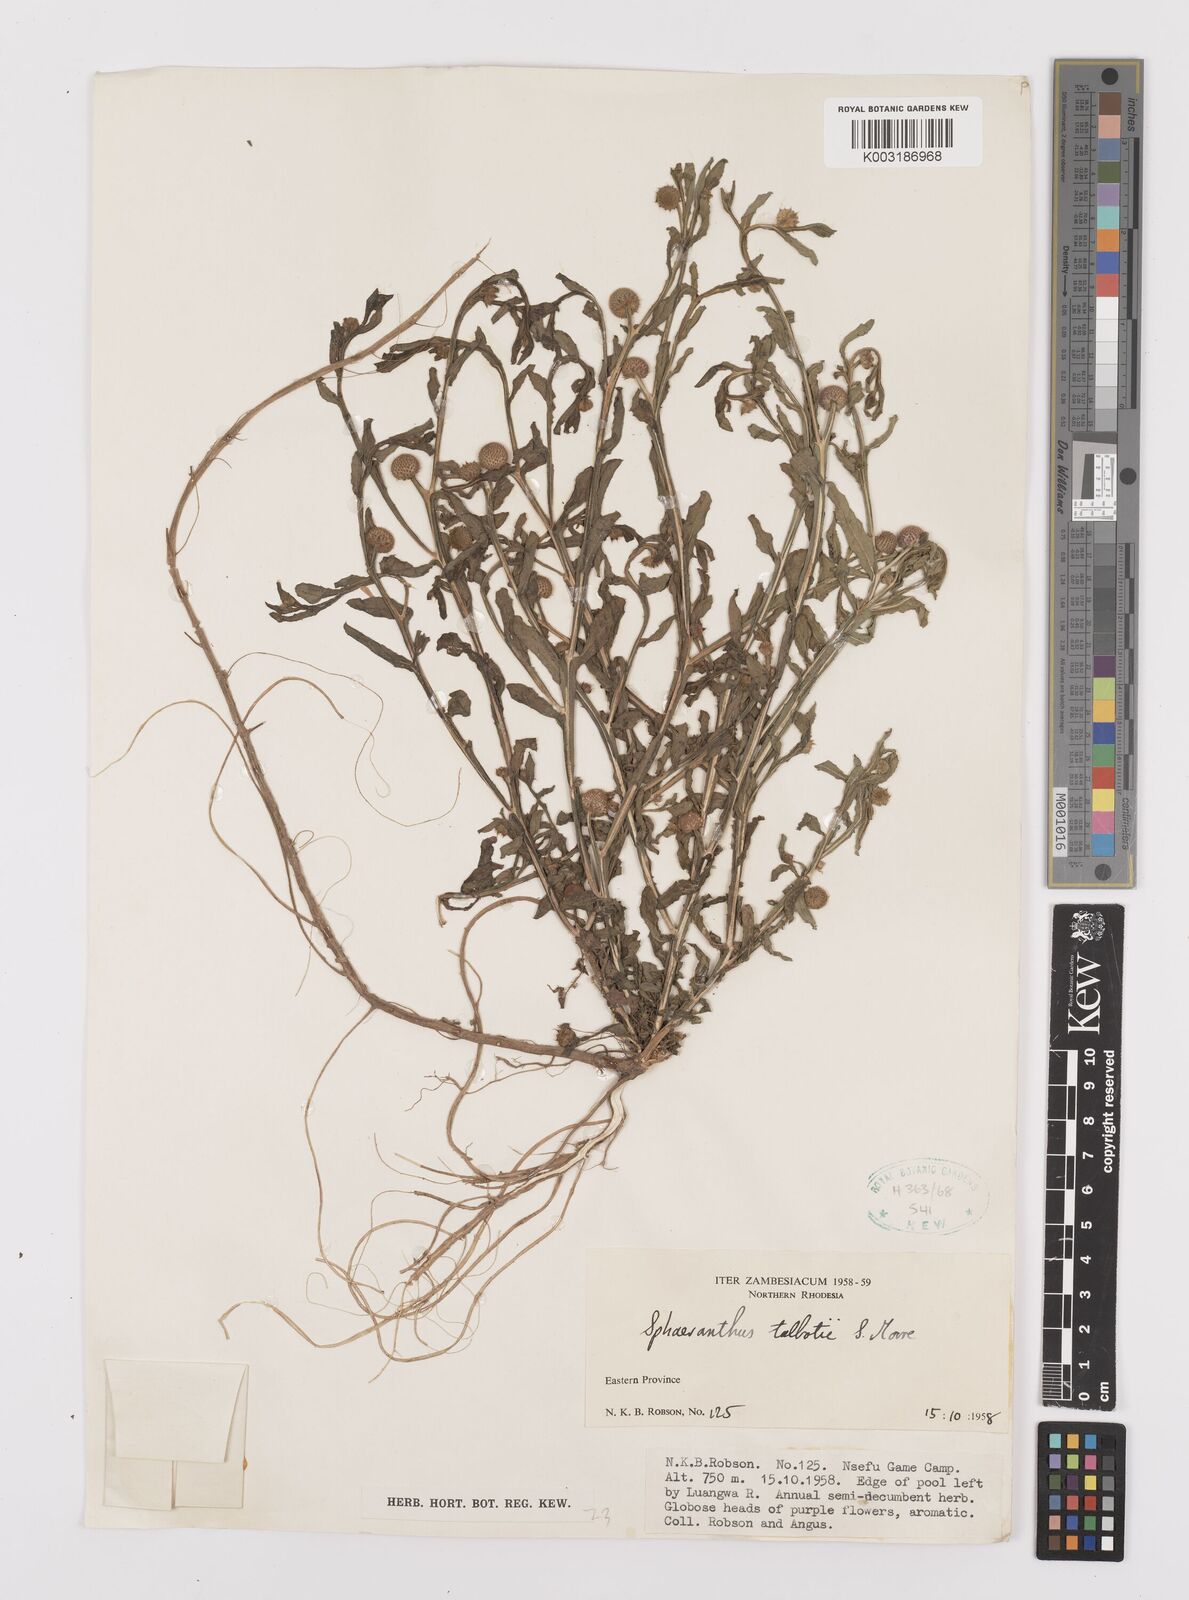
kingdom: Plantae
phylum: Tracheophyta
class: Magnoliopsida
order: Asterales
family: Asteraceae
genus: Sphaeranthus
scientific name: Sphaeranthus talbotii
